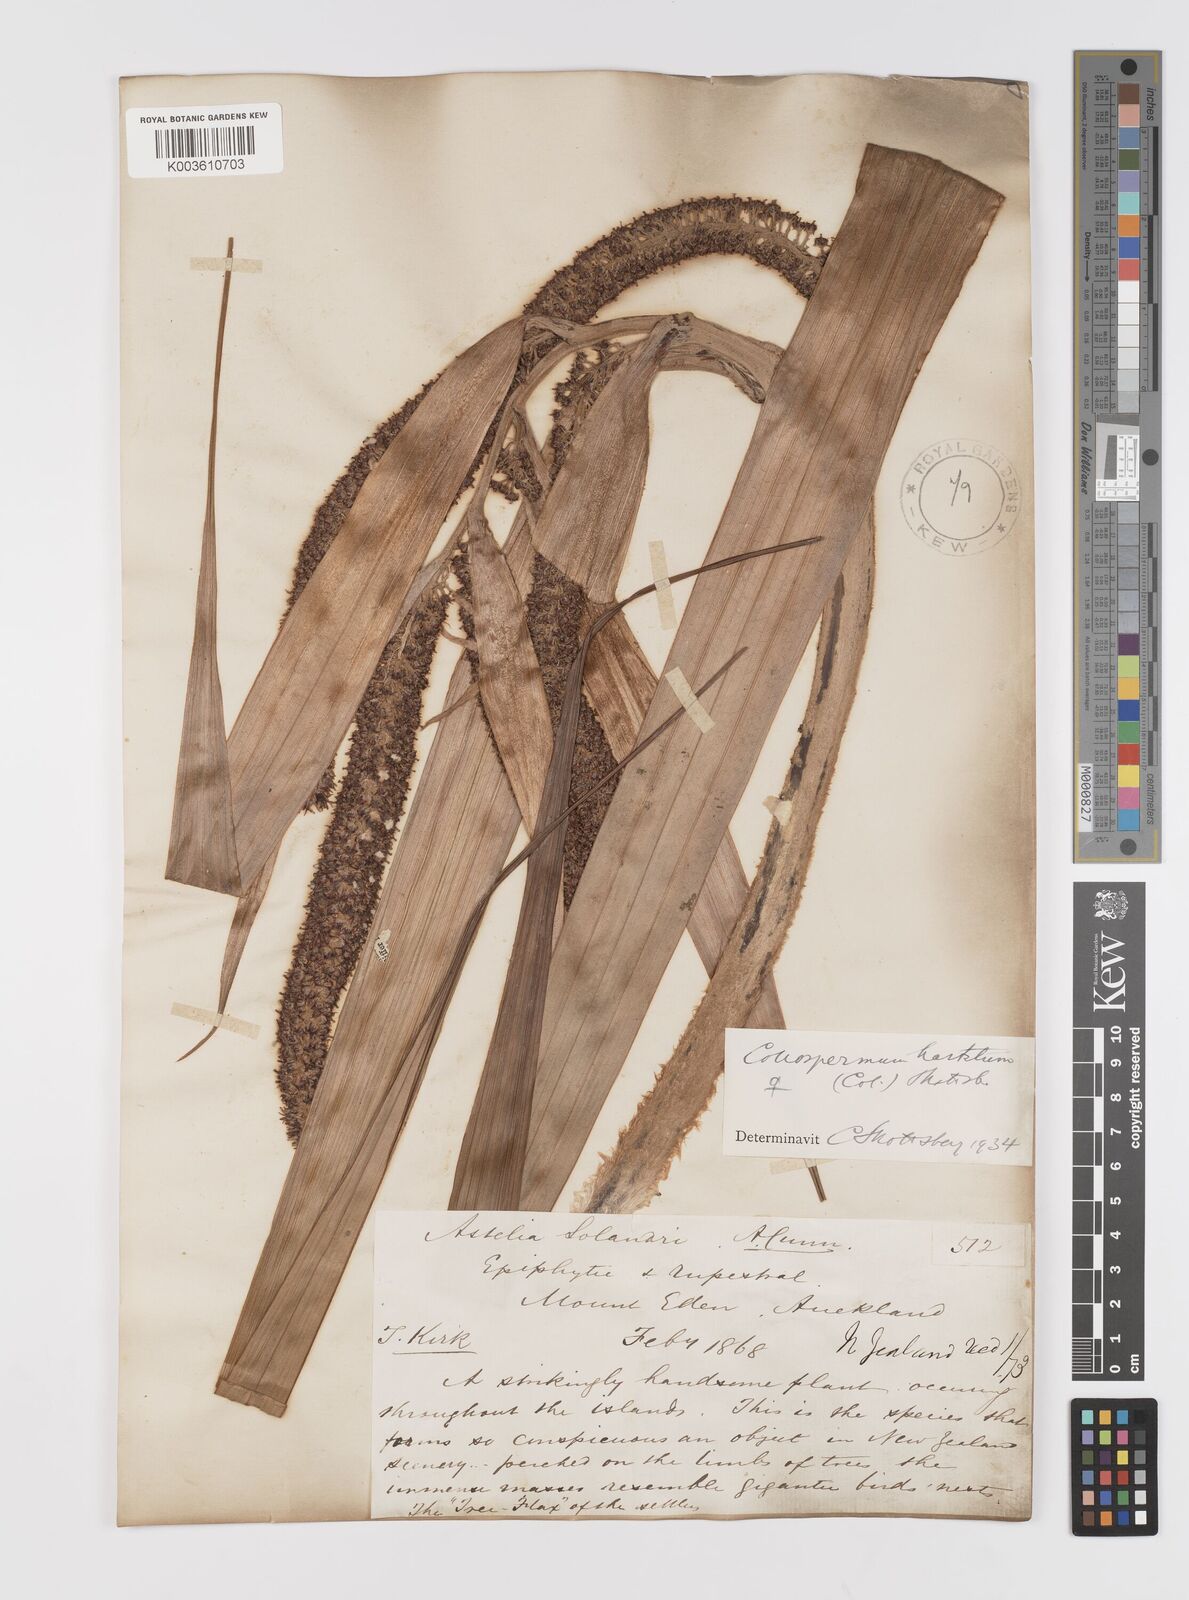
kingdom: Plantae
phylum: Tracheophyta
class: Liliopsida
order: Asparagales
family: Asteliaceae
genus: Astelia
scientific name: Astelia hastata
